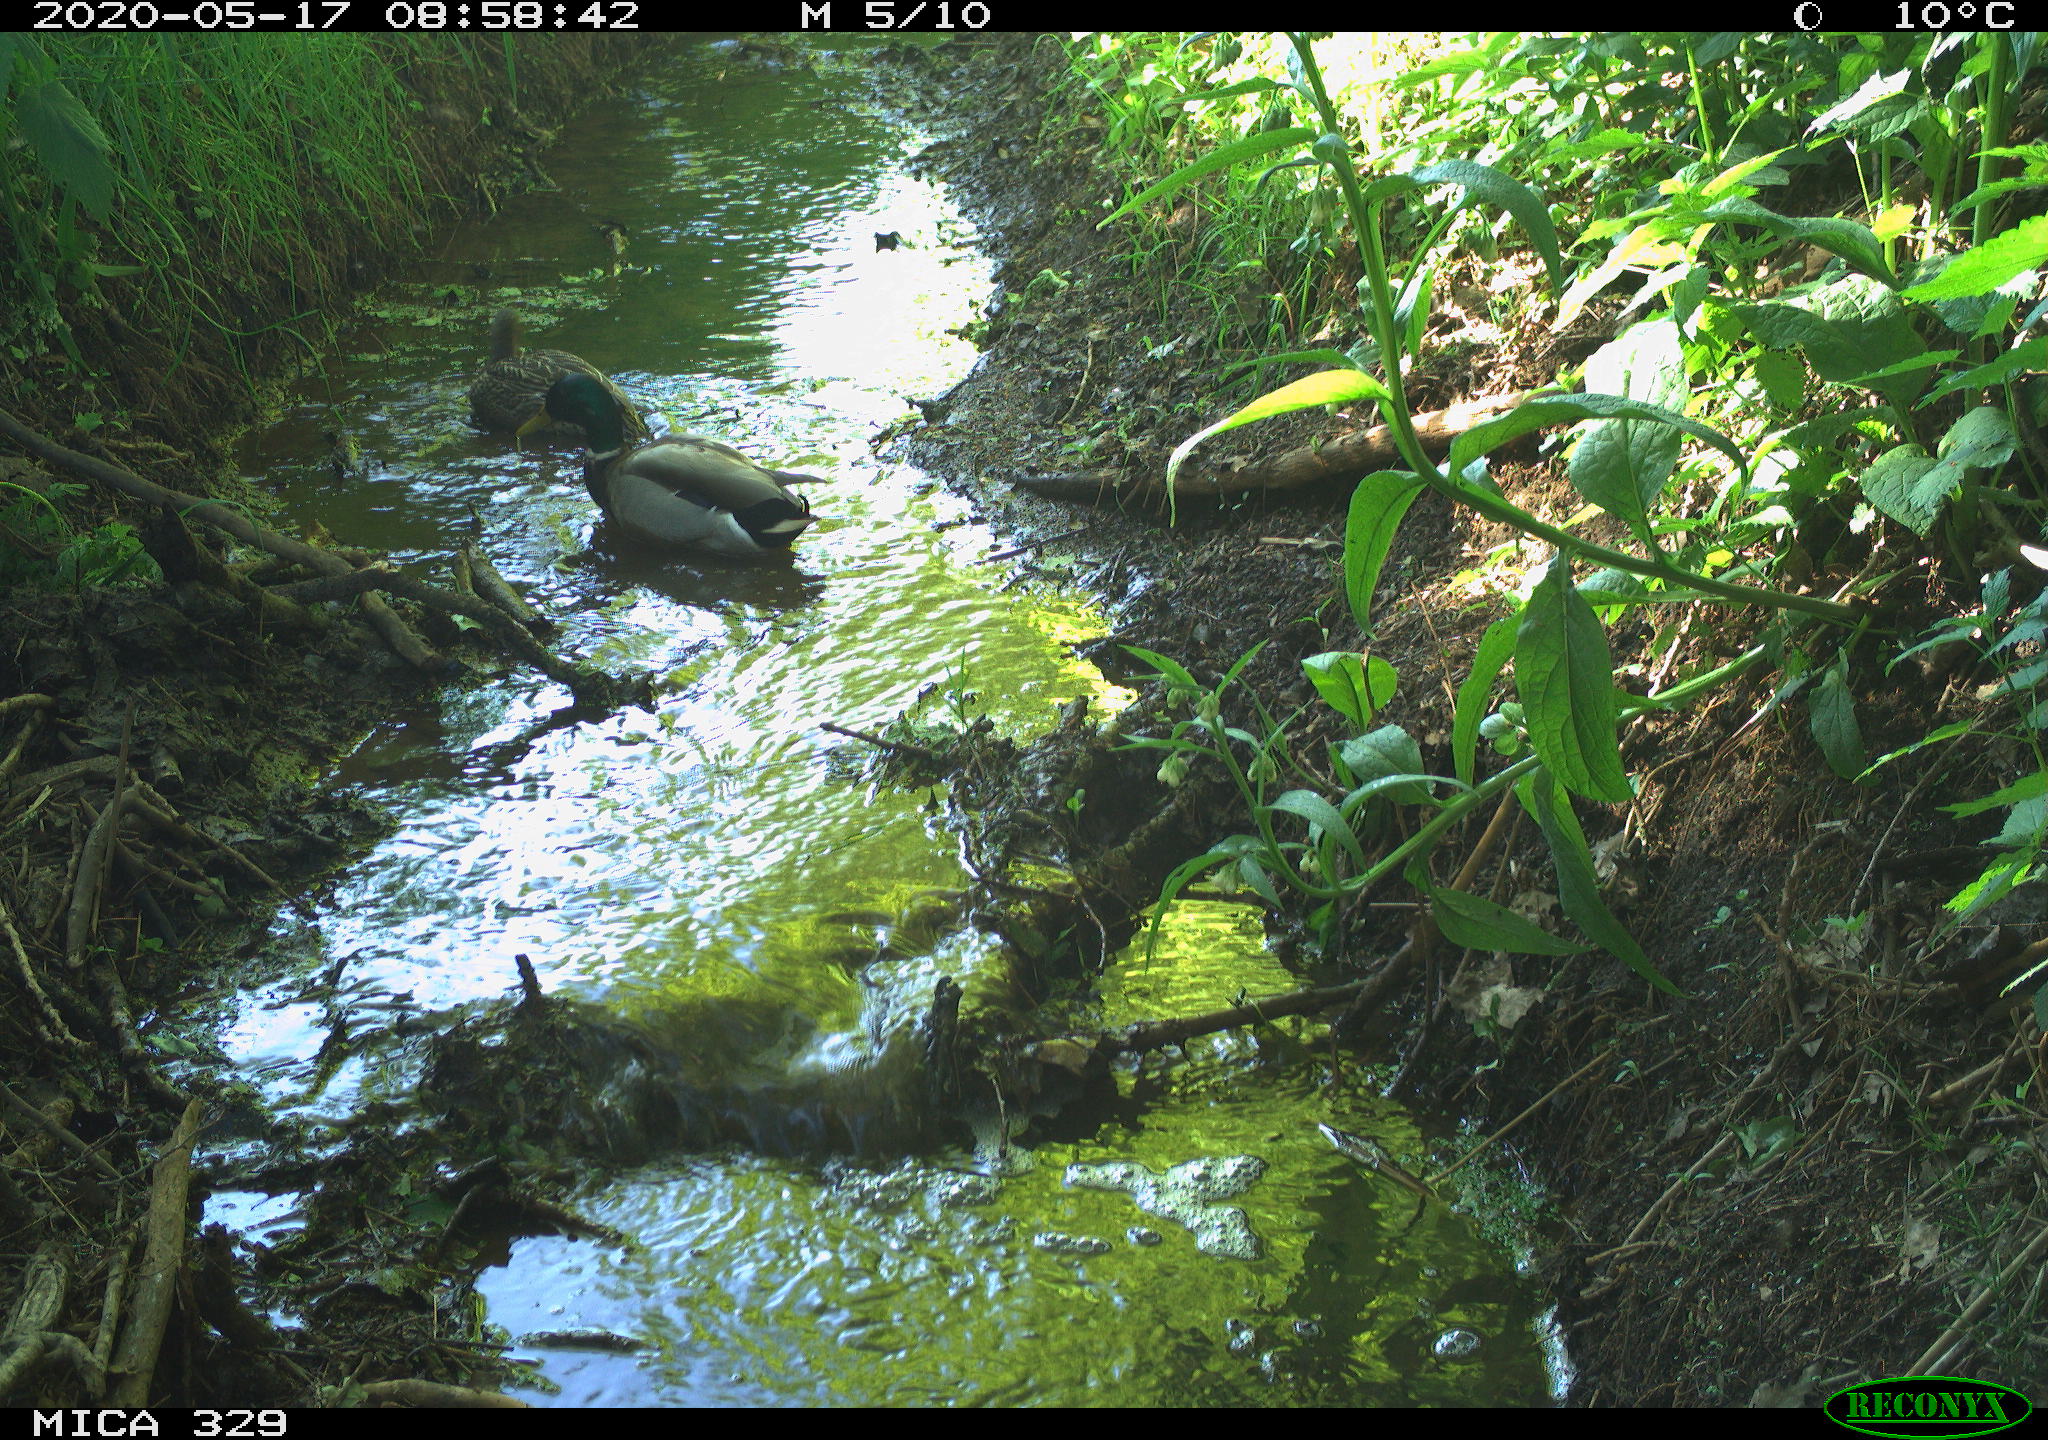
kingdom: Animalia
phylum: Chordata
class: Aves
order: Anseriformes
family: Anatidae
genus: Anas
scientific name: Anas platyrhynchos
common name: Mallard
